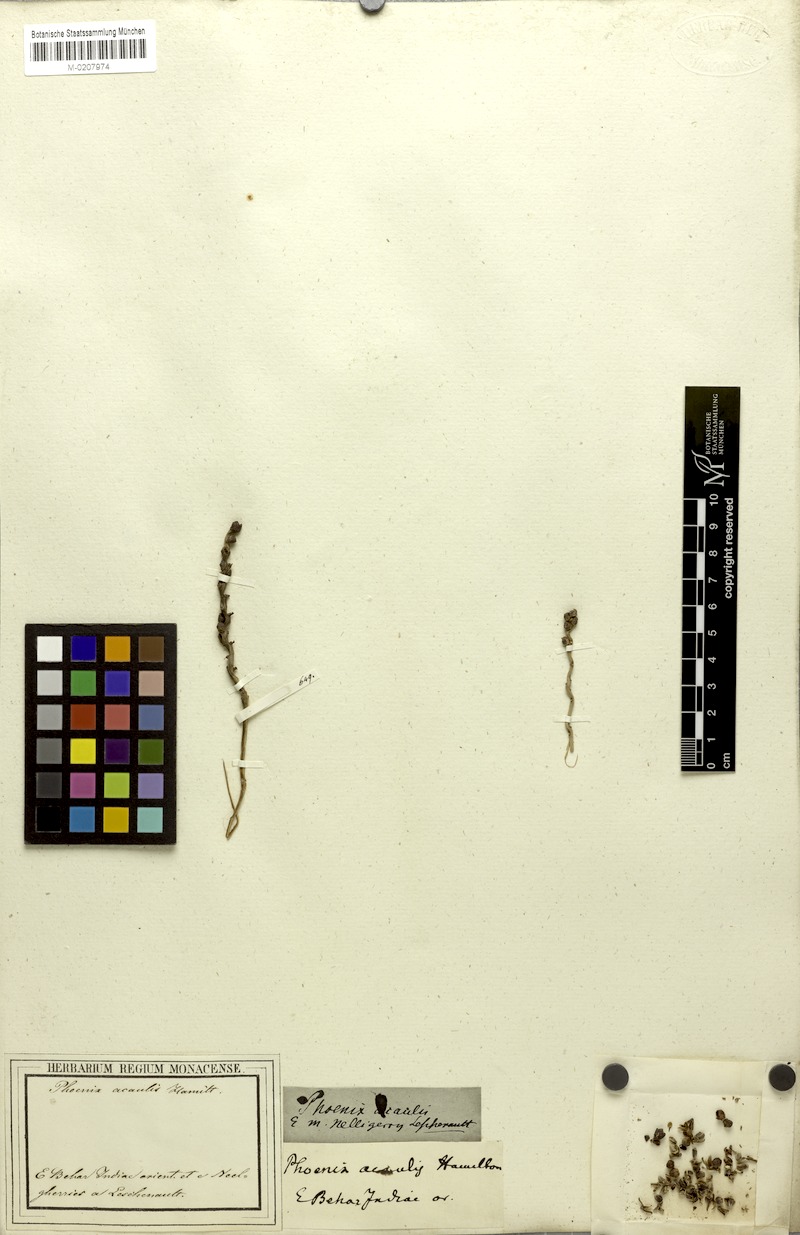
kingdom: Plantae
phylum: Tracheophyta
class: Liliopsida
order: Arecales
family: Arecaceae
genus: Phoenix
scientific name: Phoenix acaulis
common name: Stemless date palm
